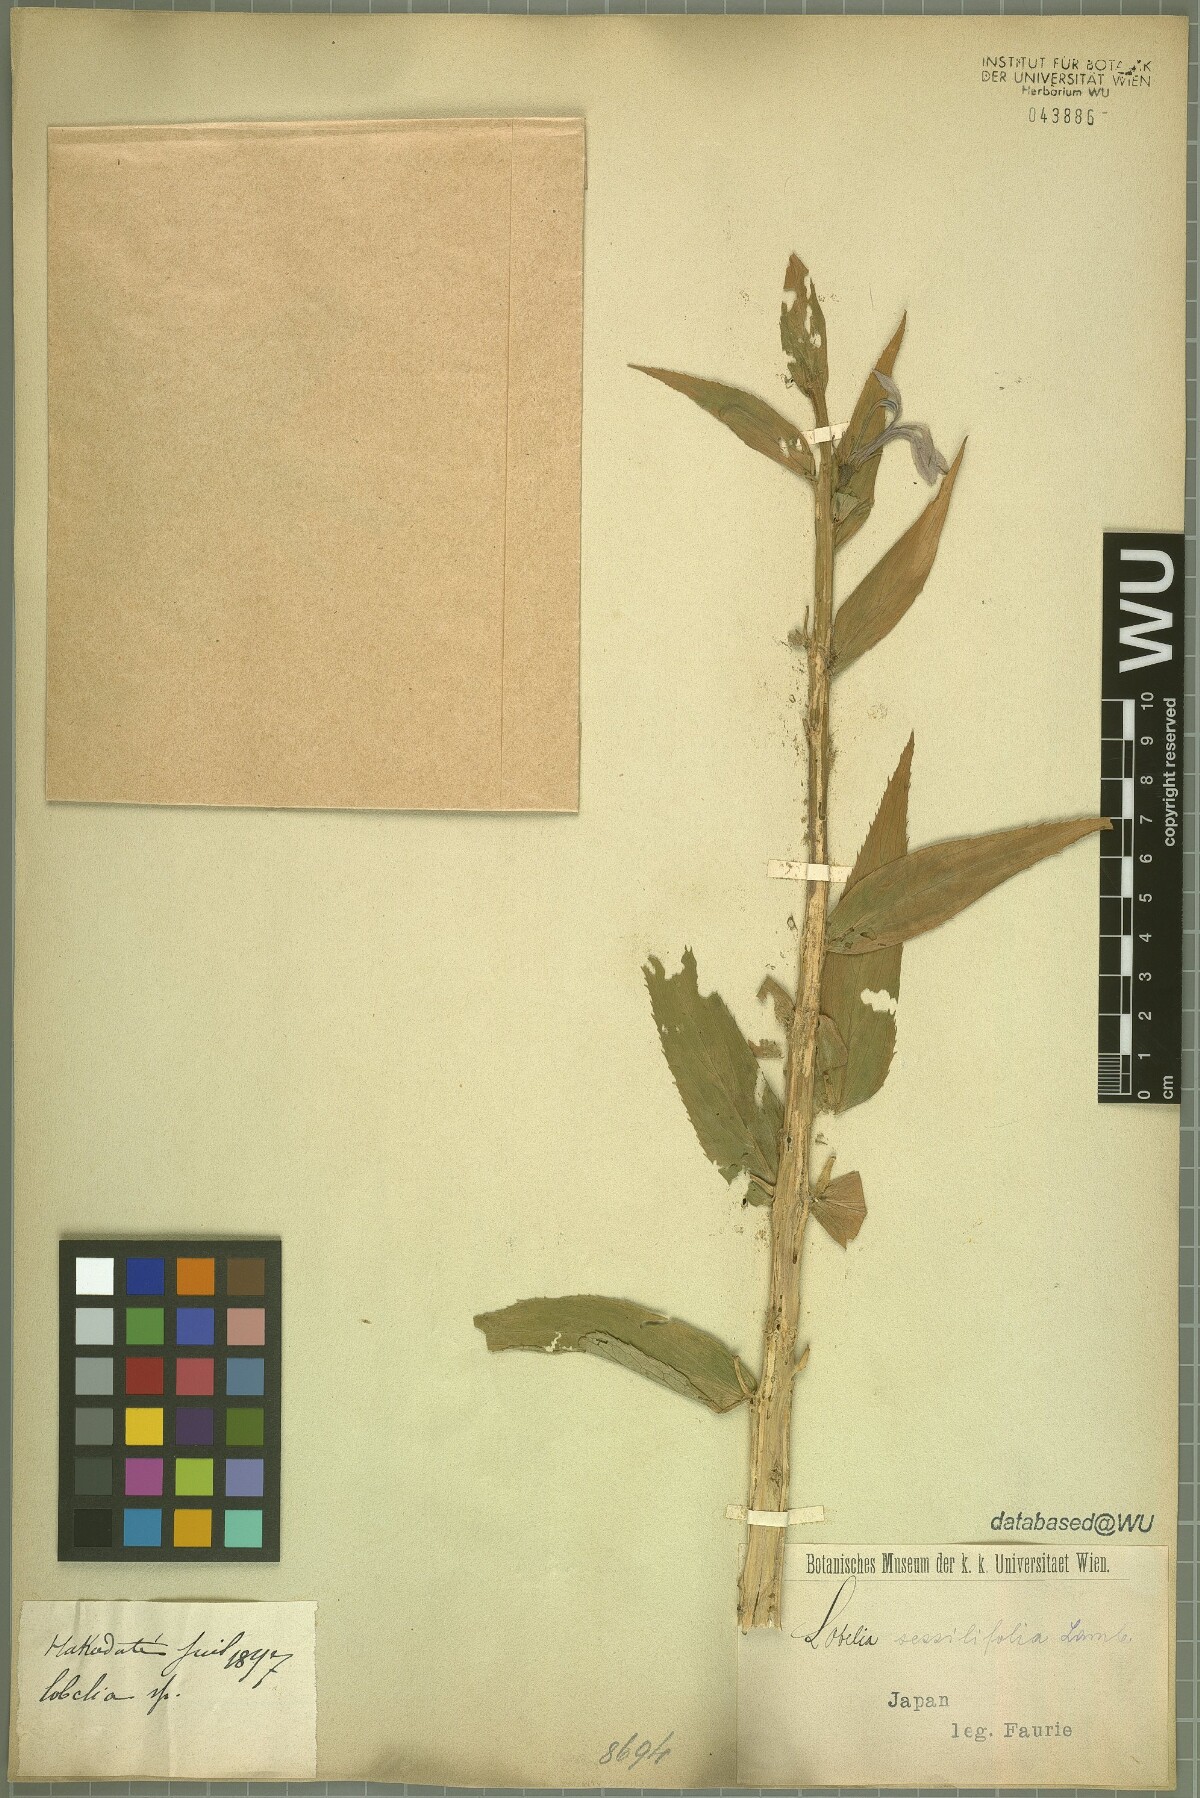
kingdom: Plantae
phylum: Tracheophyta
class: Magnoliopsida
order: Asterales
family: Campanulaceae
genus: Lobelia
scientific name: Lobelia sessilifolia
